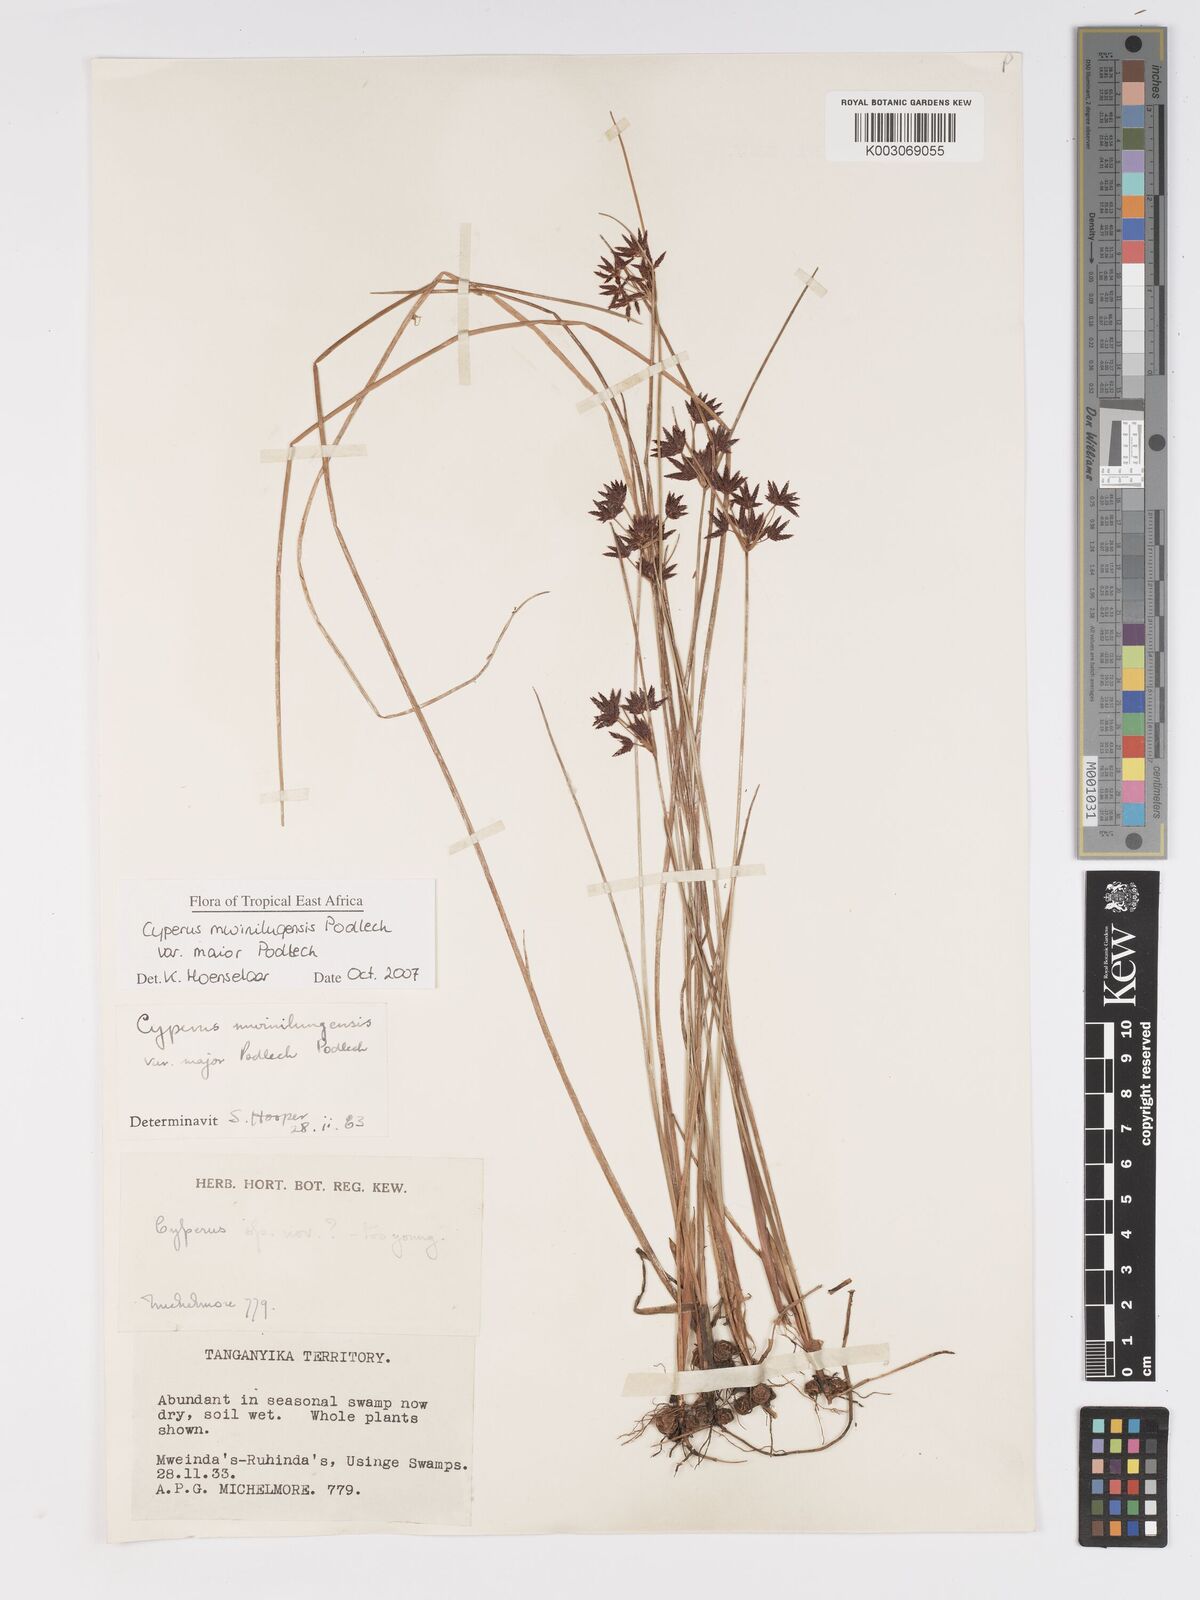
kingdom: Plantae
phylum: Tracheophyta
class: Liliopsida
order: Poales
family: Cyperaceae
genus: Cyperus
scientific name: Cyperus mwinilungensis
